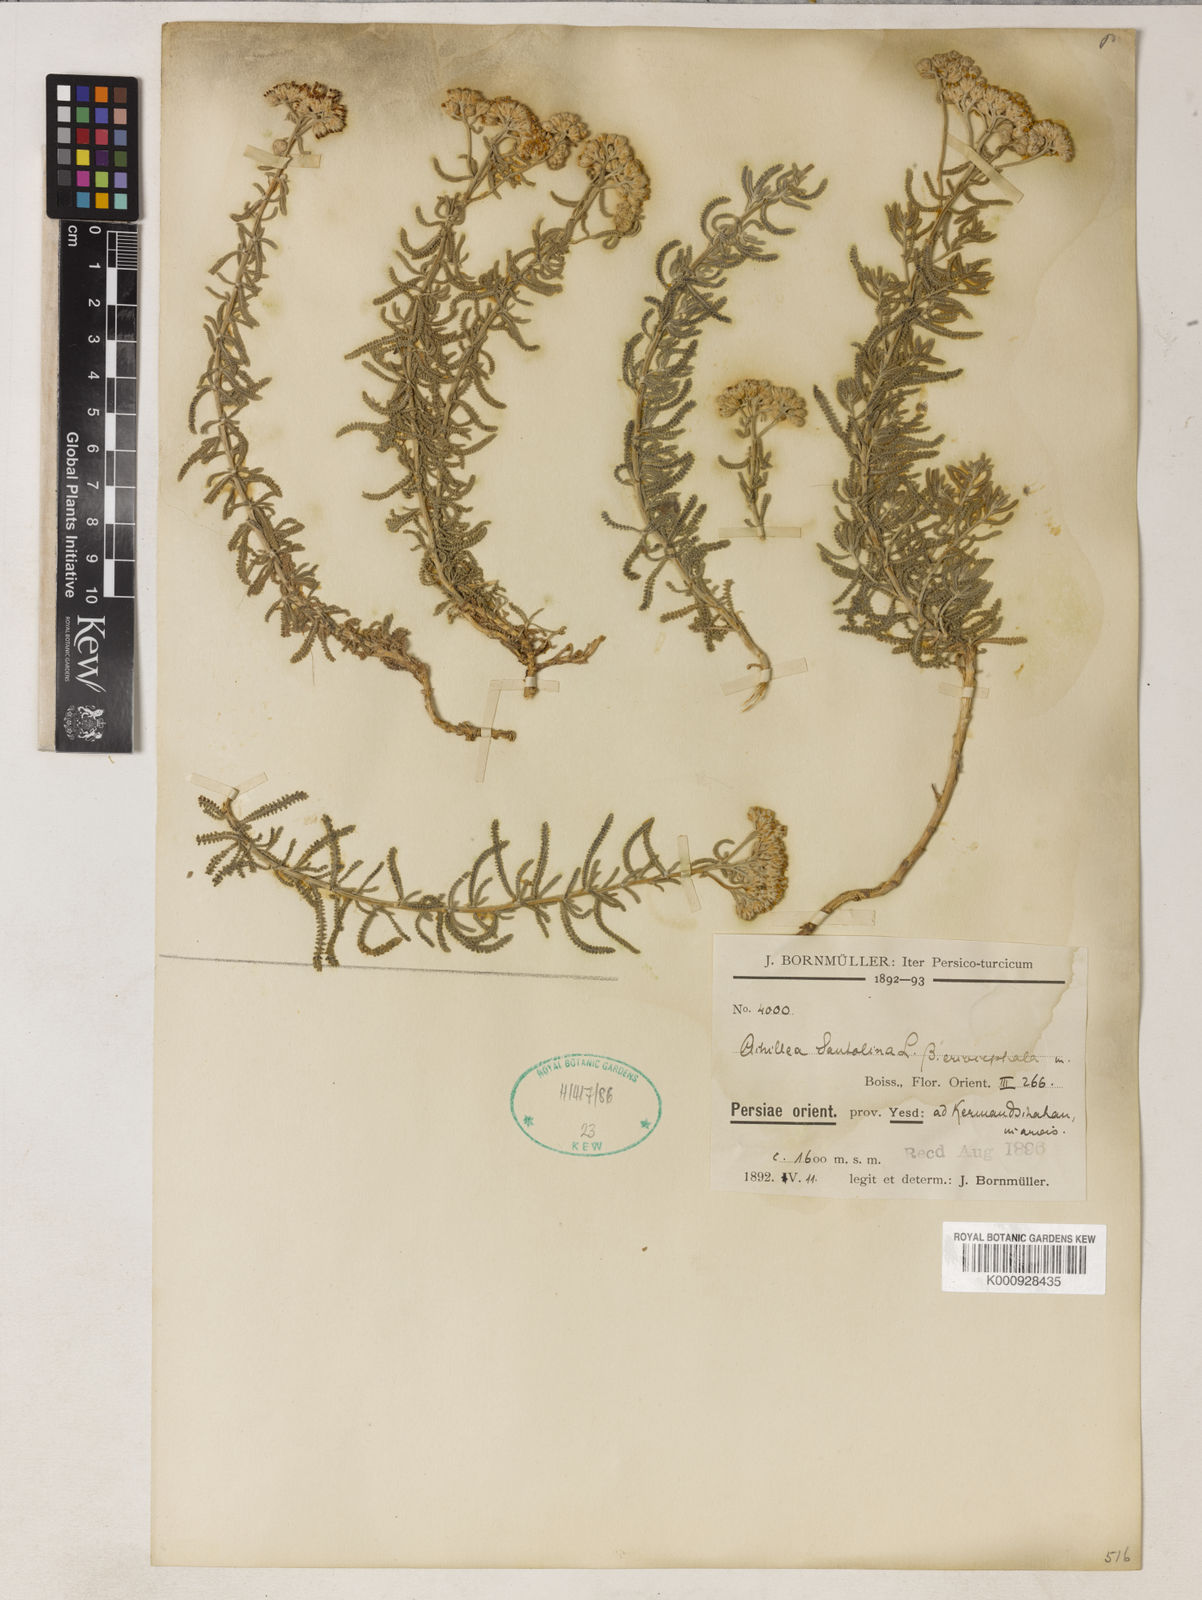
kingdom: Plantae
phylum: Tracheophyta
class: Magnoliopsida
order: Asterales
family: Asteraceae
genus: Achillea
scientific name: Achillea tenuifolia
